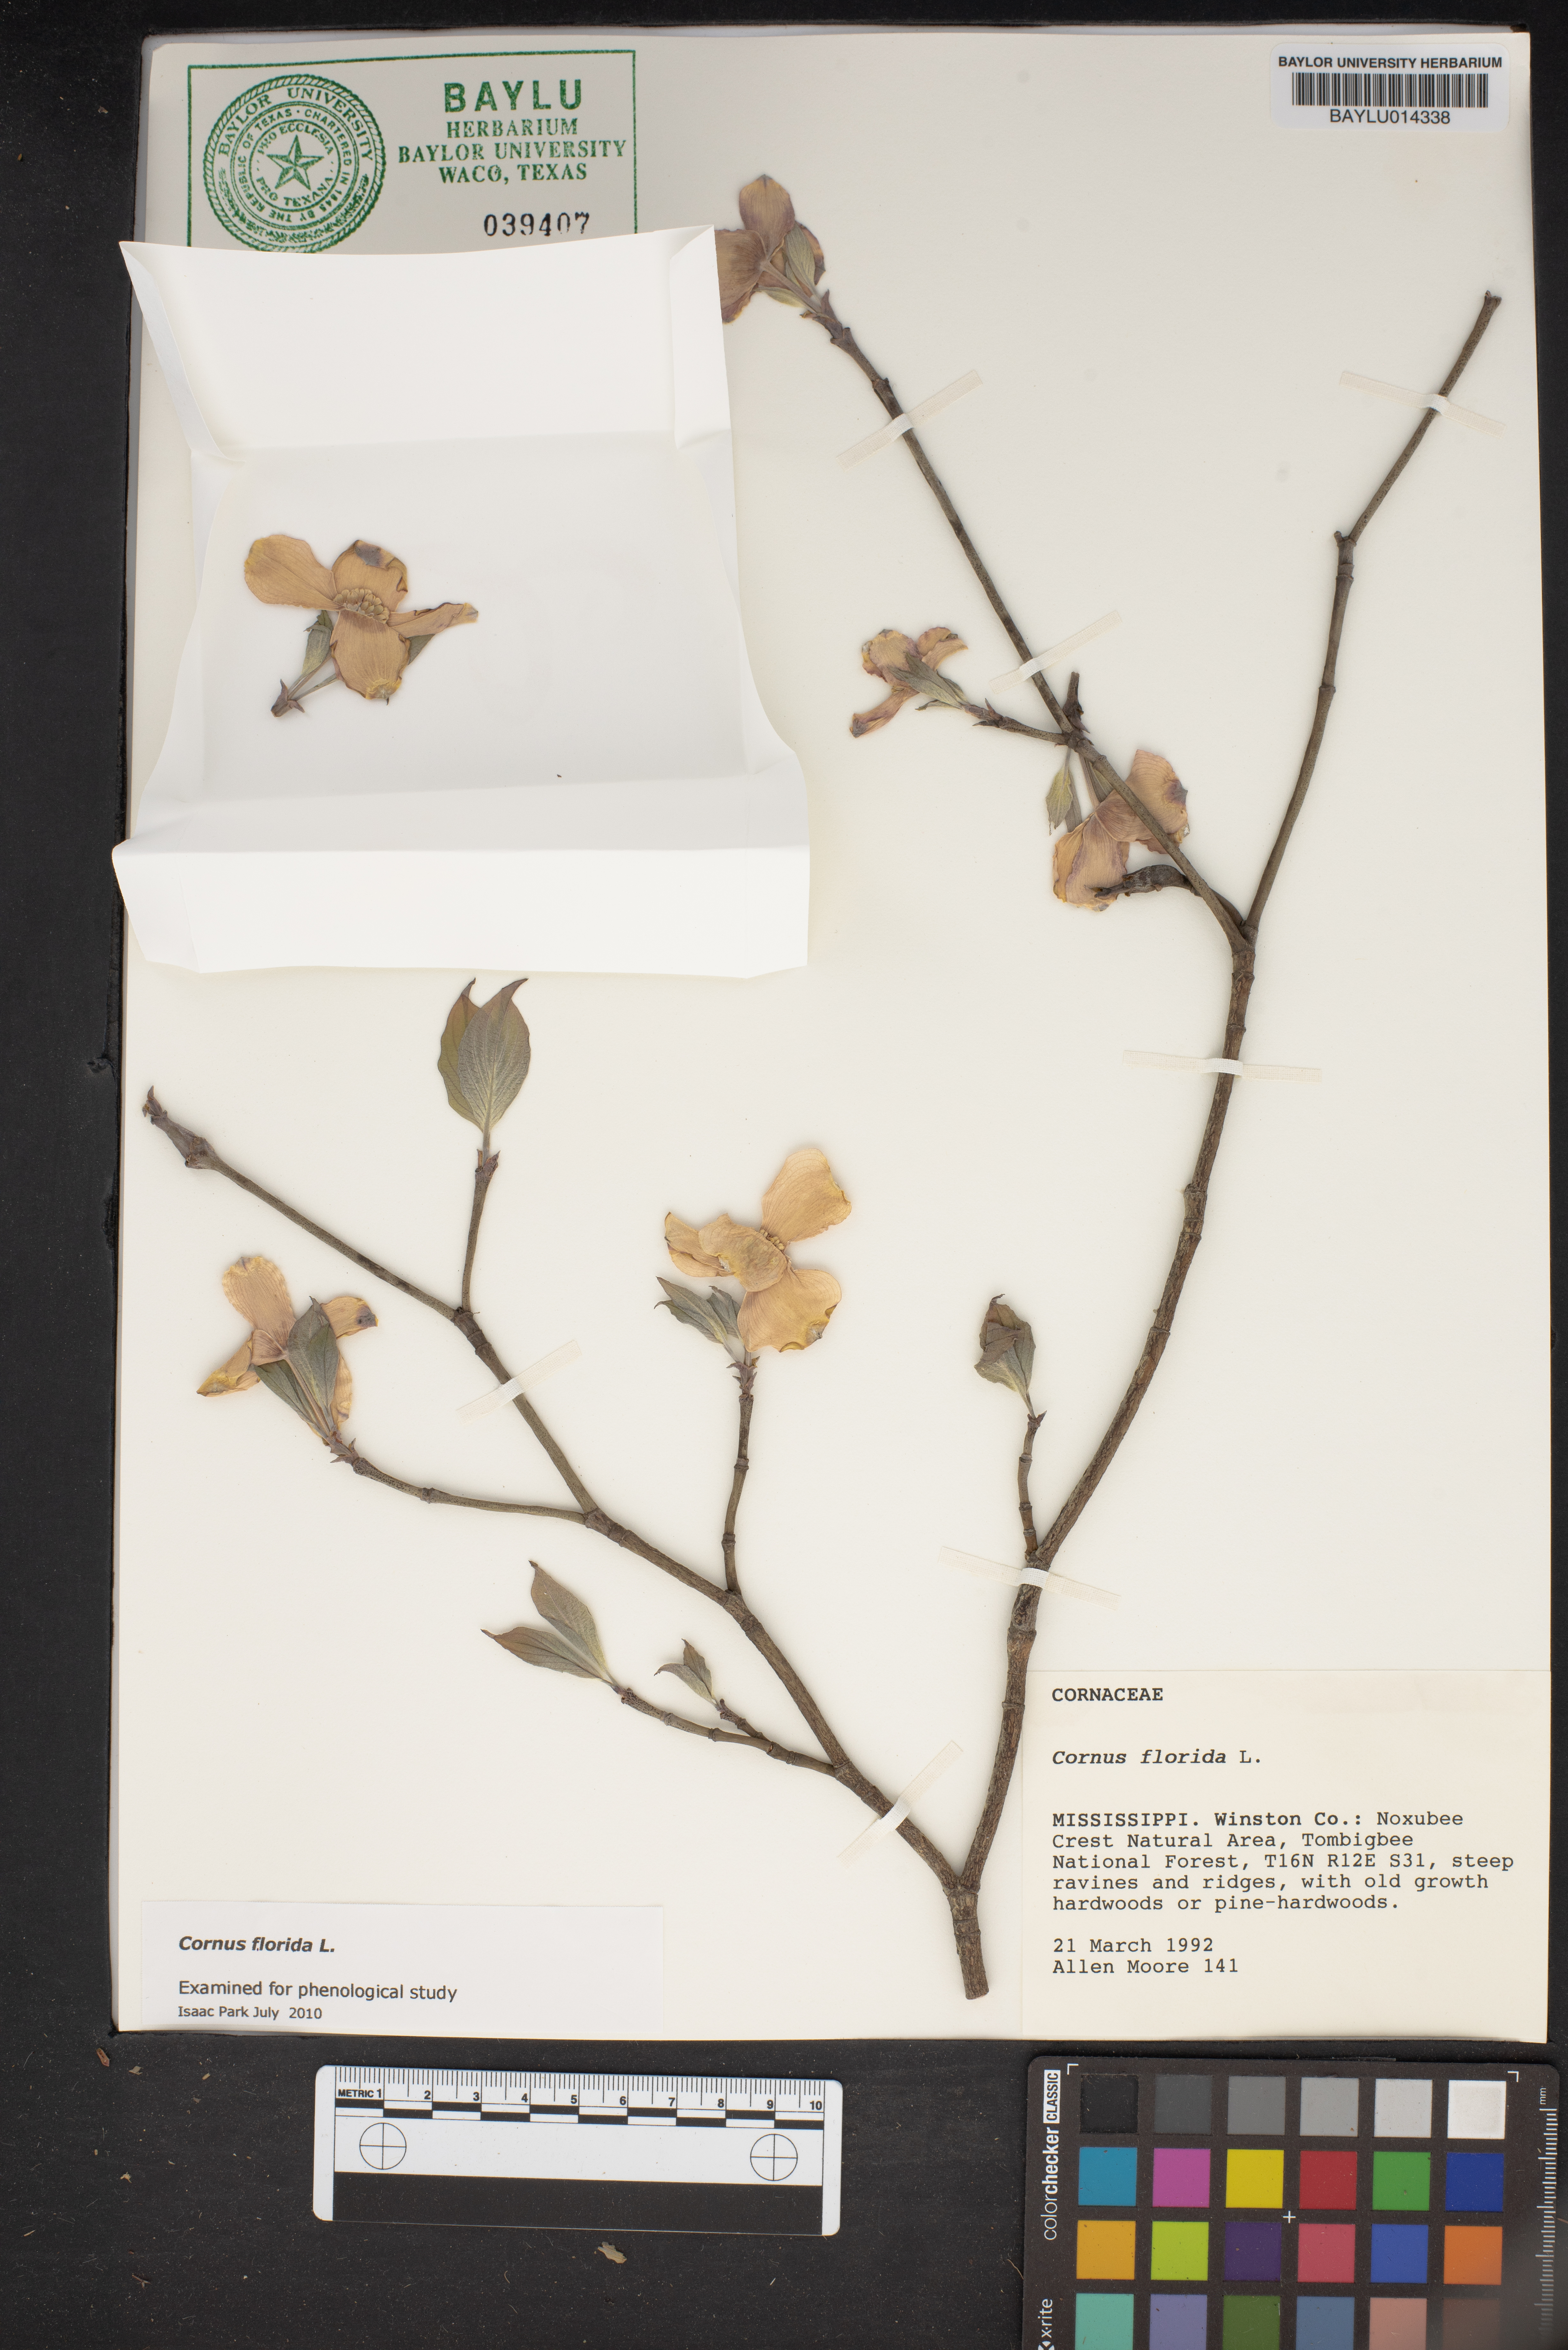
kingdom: Plantae
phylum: Tracheophyta
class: Magnoliopsida
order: Cornales
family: Cornaceae
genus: Cornus
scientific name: Cornus florida
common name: Flowering dogwood
